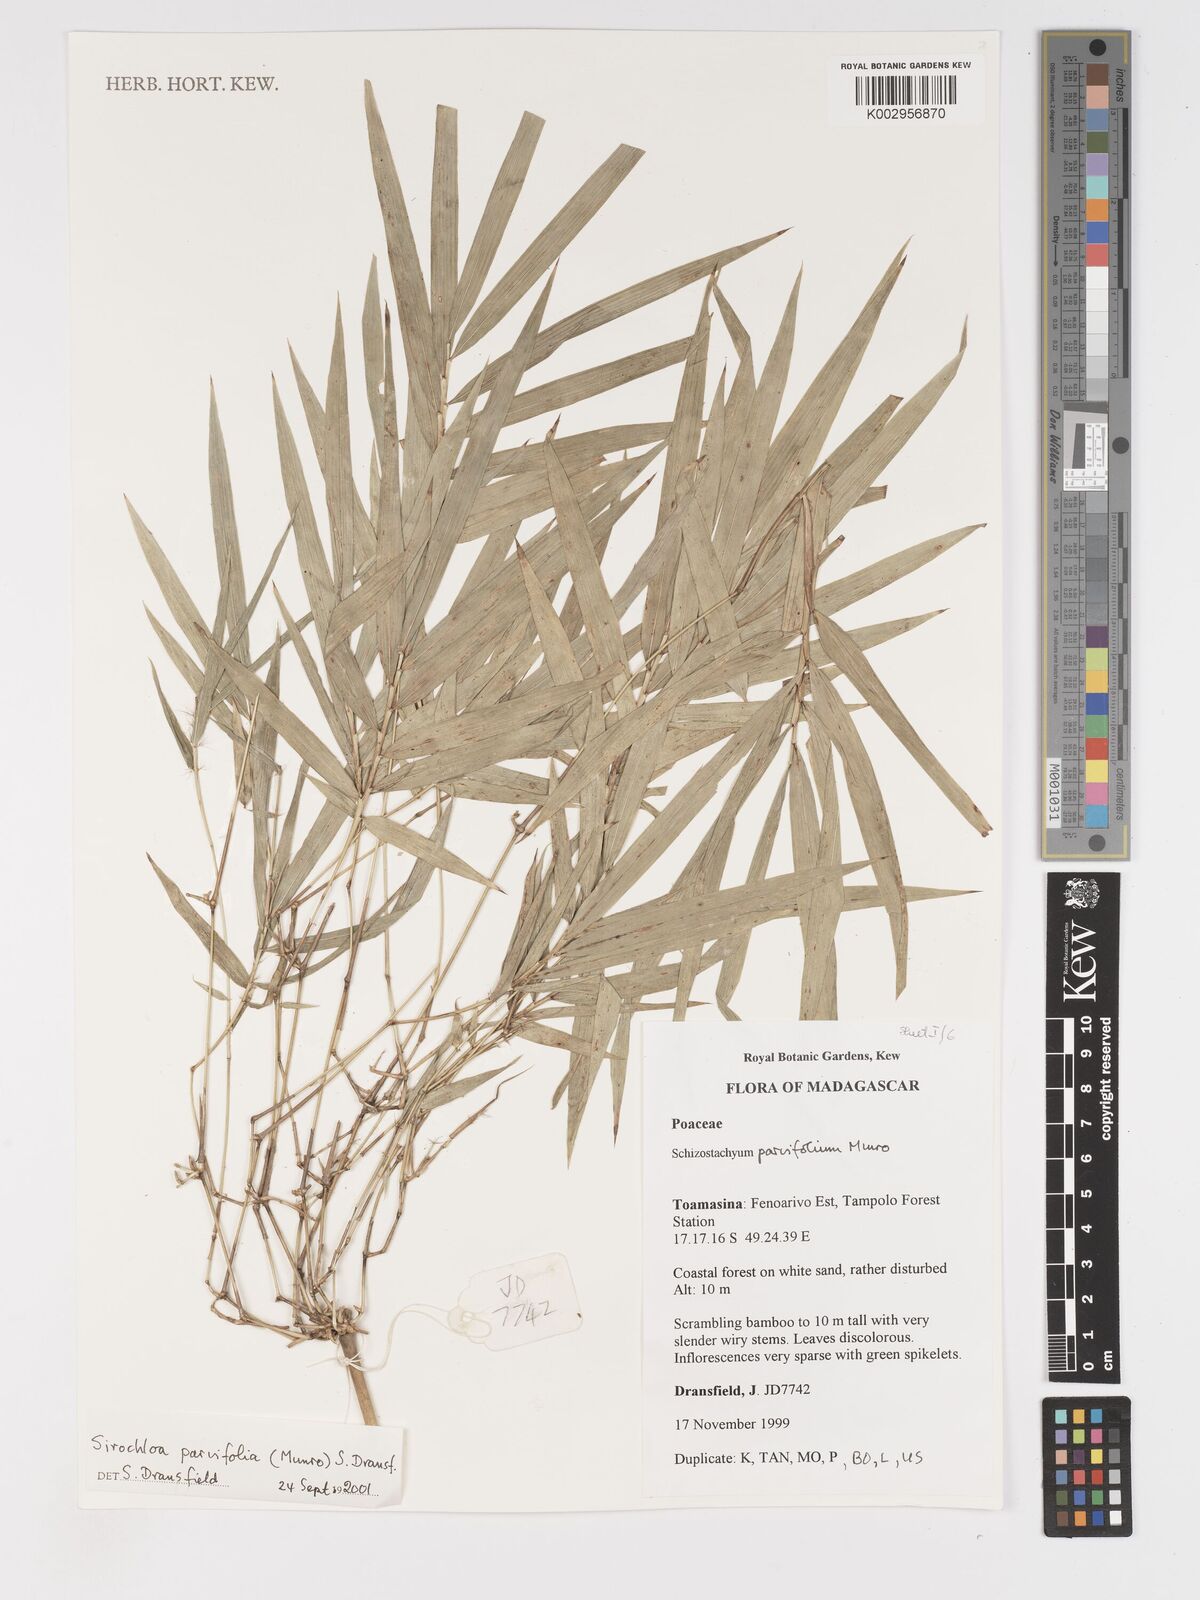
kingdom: Plantae
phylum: Tracheophyta
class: Liliopsida
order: Poales
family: Poaceae
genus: Sirochloa
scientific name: Sirochloa parvifolia
